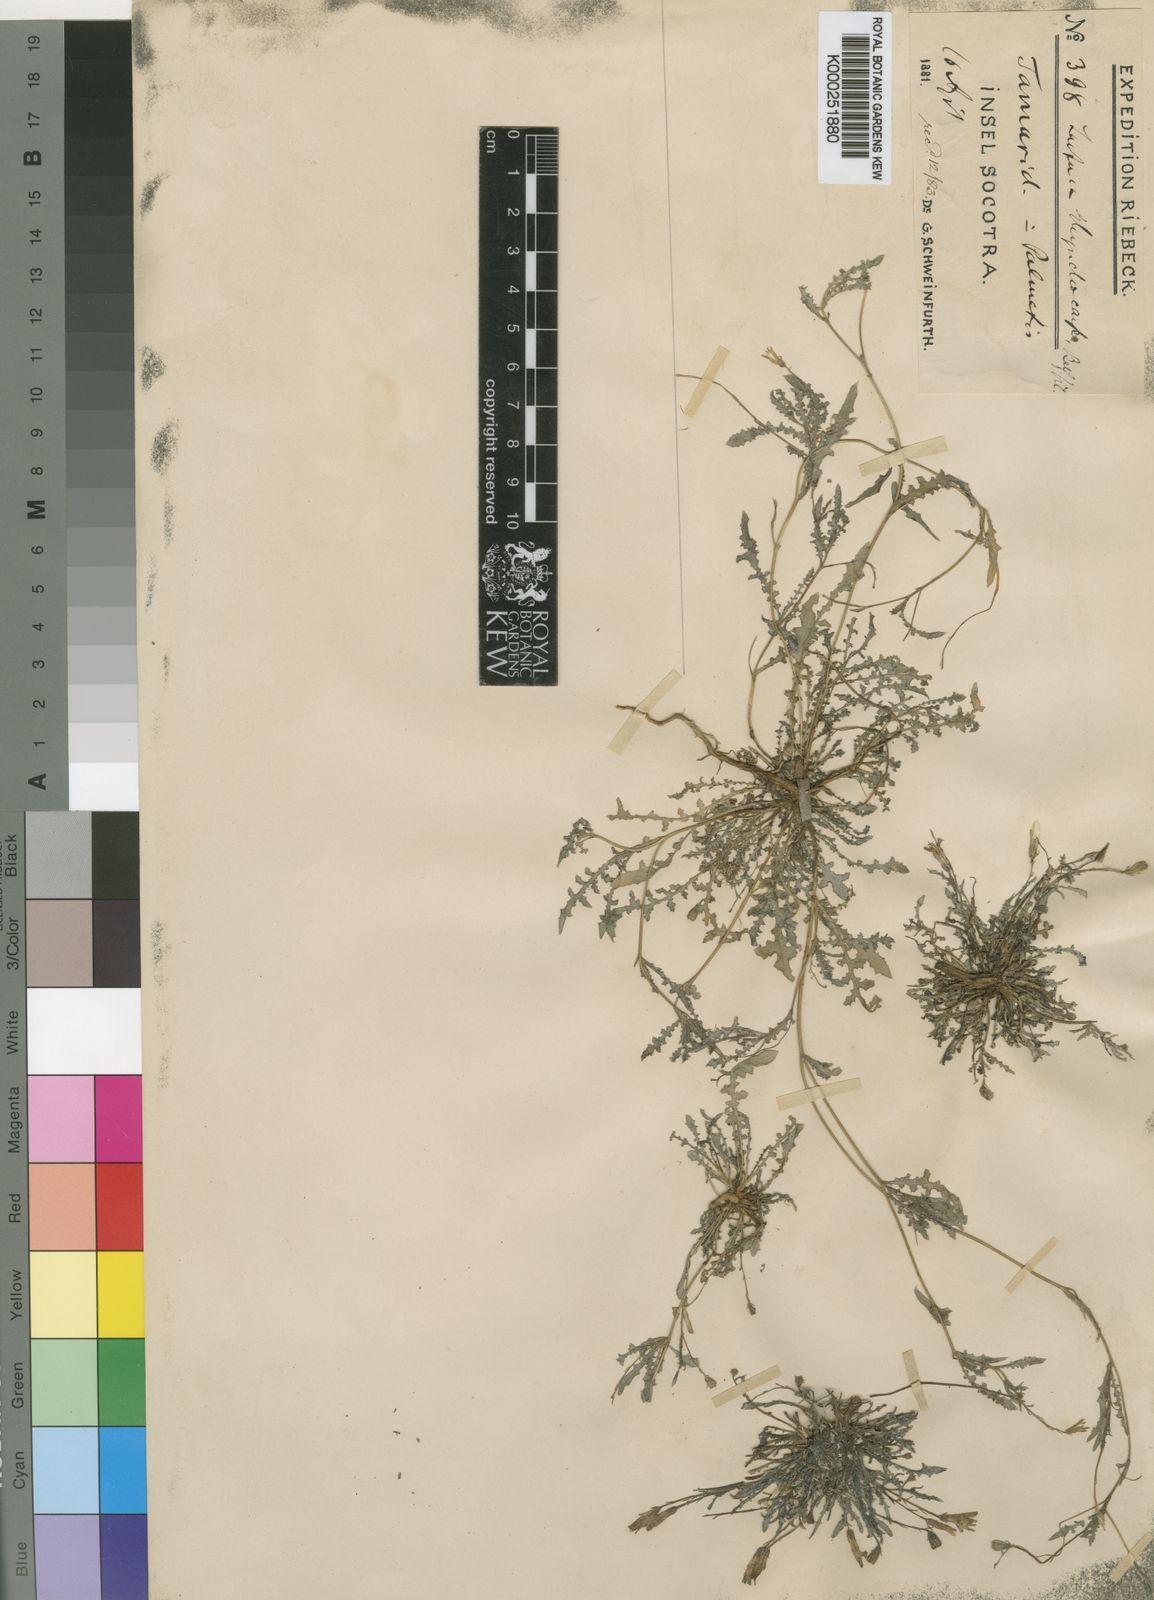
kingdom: Plantae
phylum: Tracheophyta
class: Magnoliopsida
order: Asterales
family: Asteraceae
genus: Launaea
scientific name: Launaea rhynchocarpa
